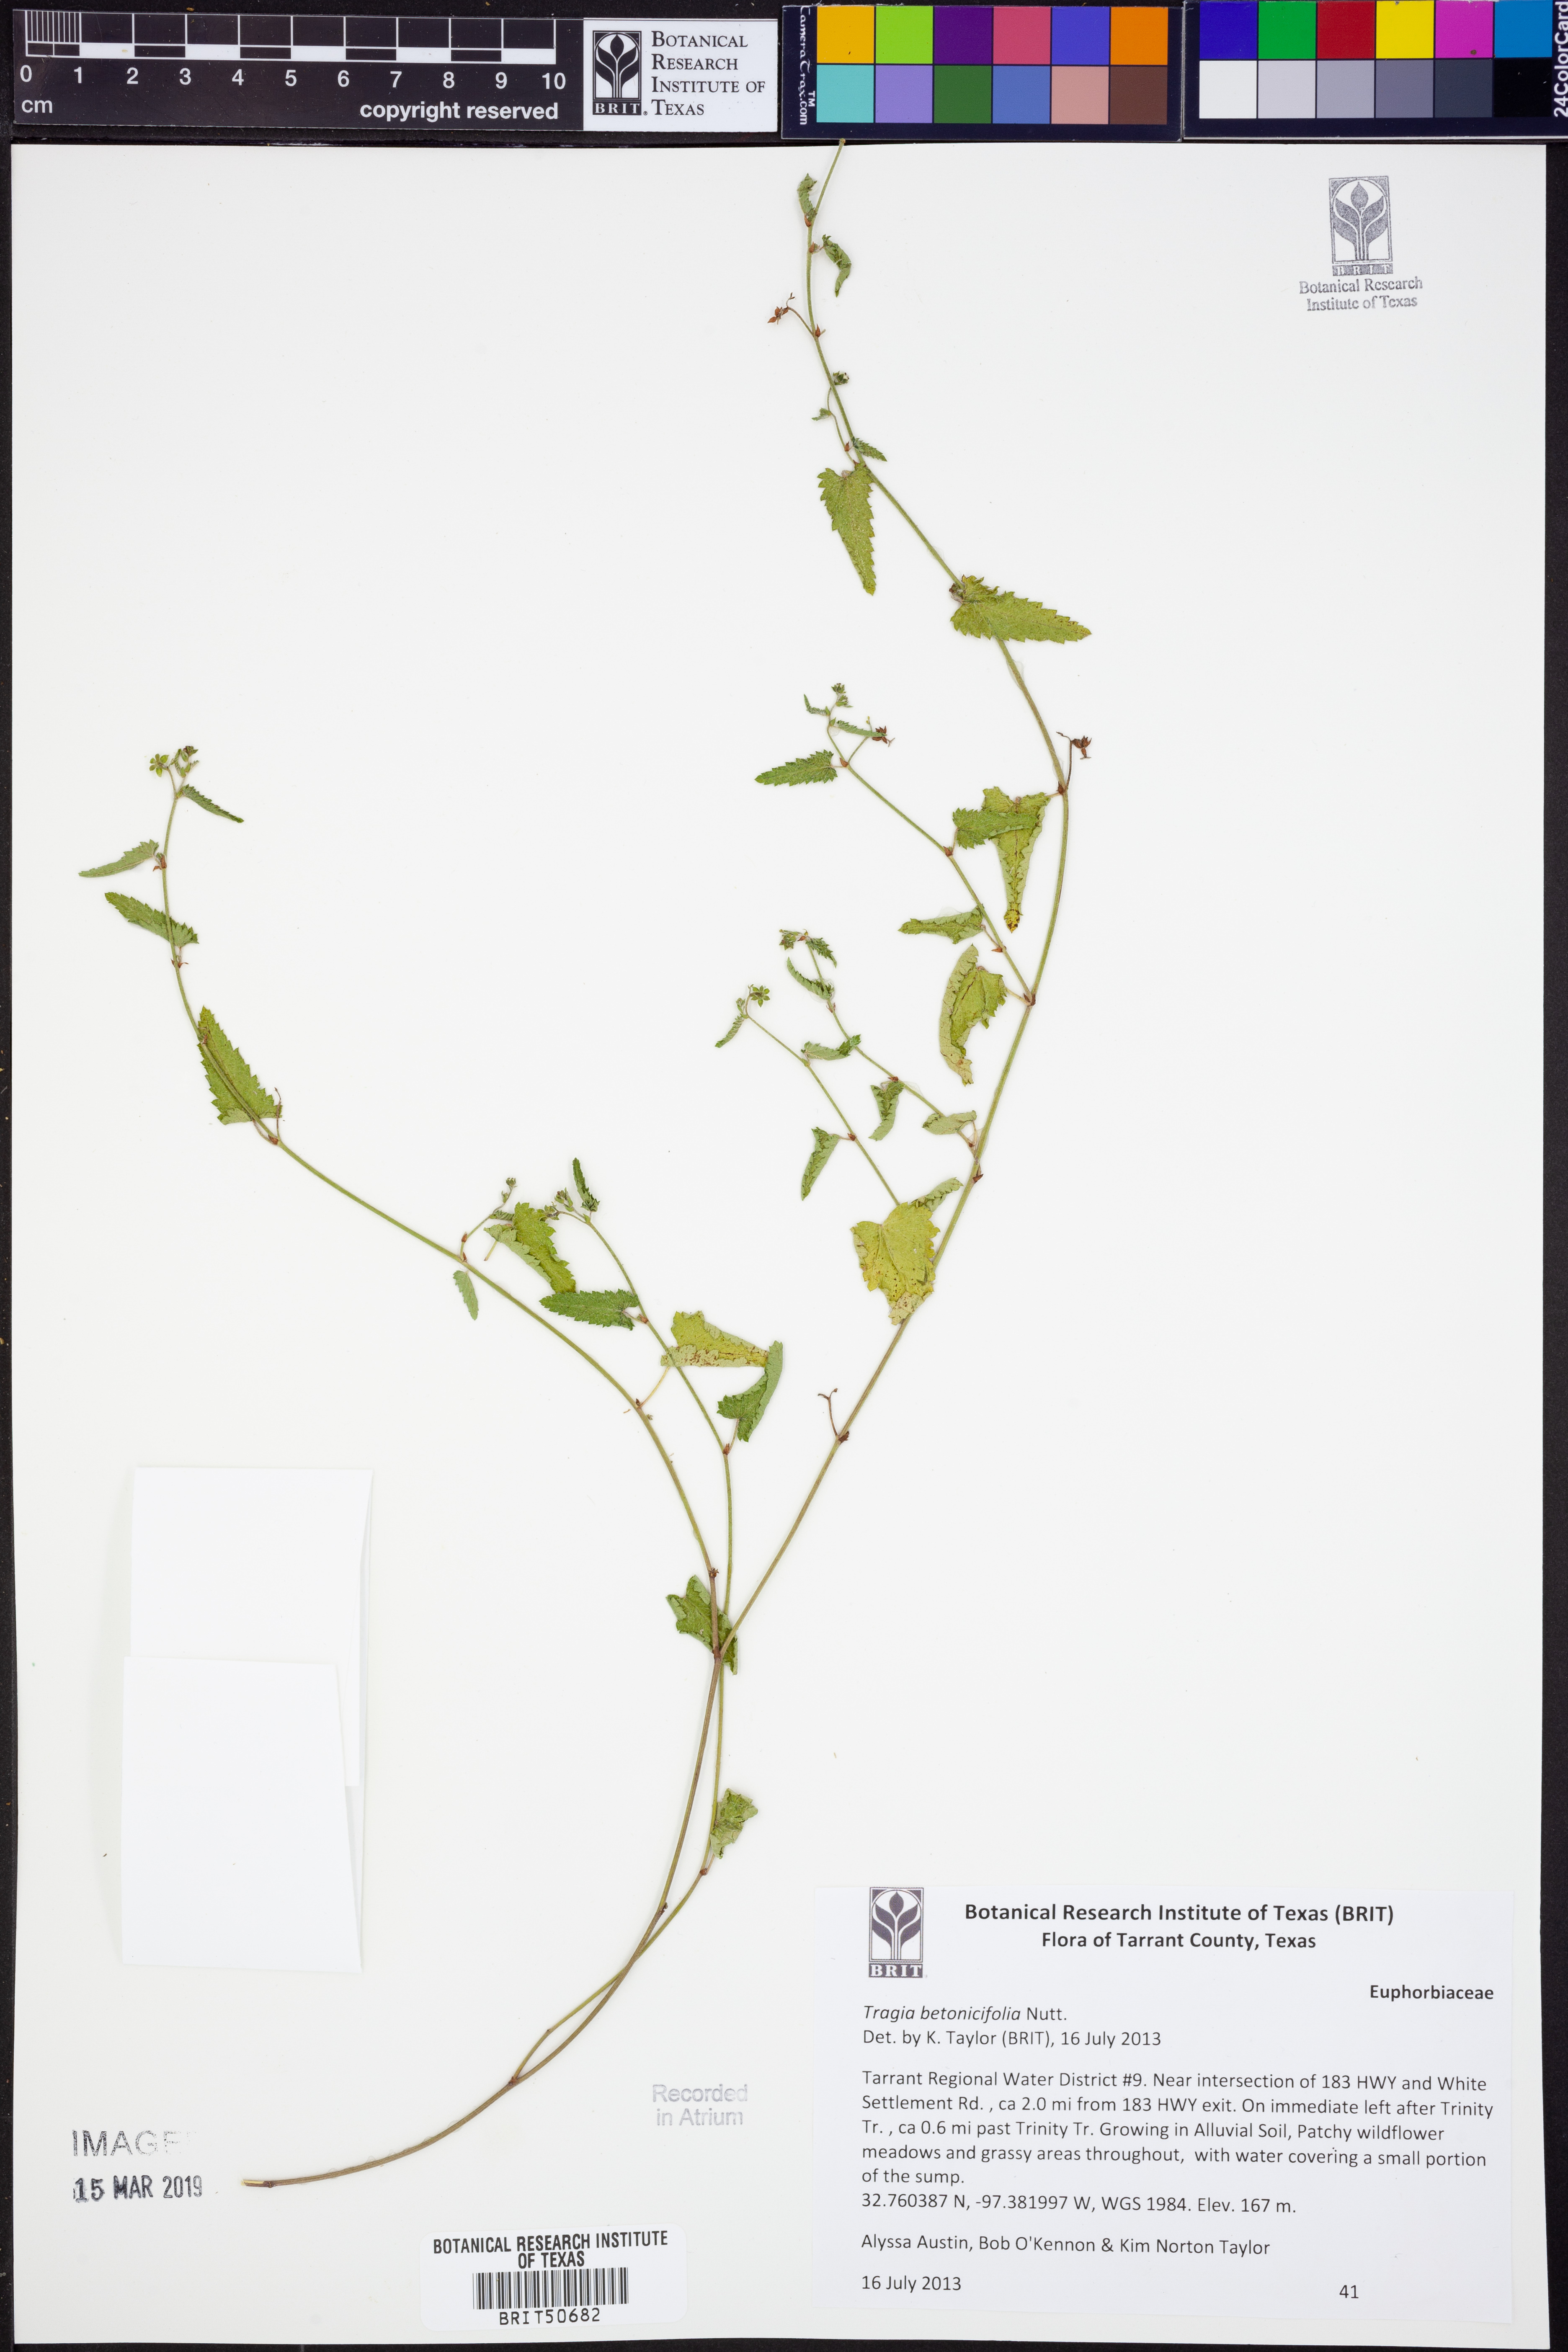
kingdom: Plantae
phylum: Tracheophyta
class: Magnoliopsida
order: Malpighiales
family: Euphorbiaceae
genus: Tragia
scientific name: Tragia betonicifolia
